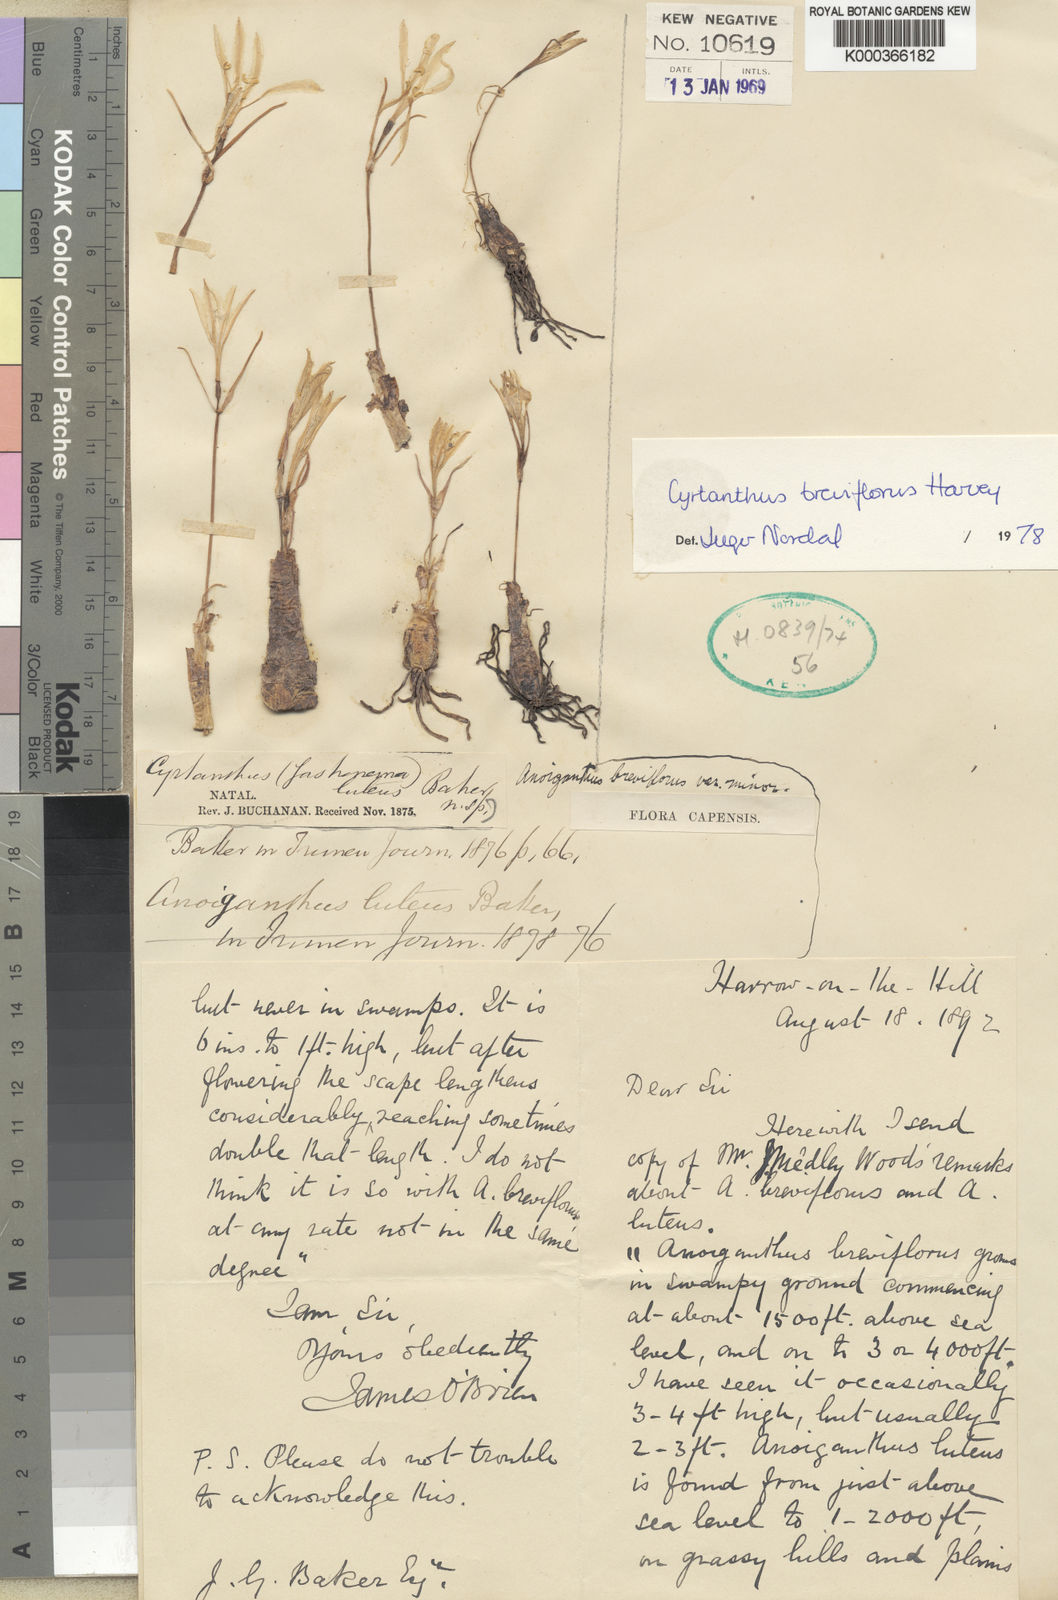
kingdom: Plantae
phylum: Tracheophyta
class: Liliopsida
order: Asparagales
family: Amaryllidaceae
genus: Cyrtanthus
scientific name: Cyrtanthus breviflorus
